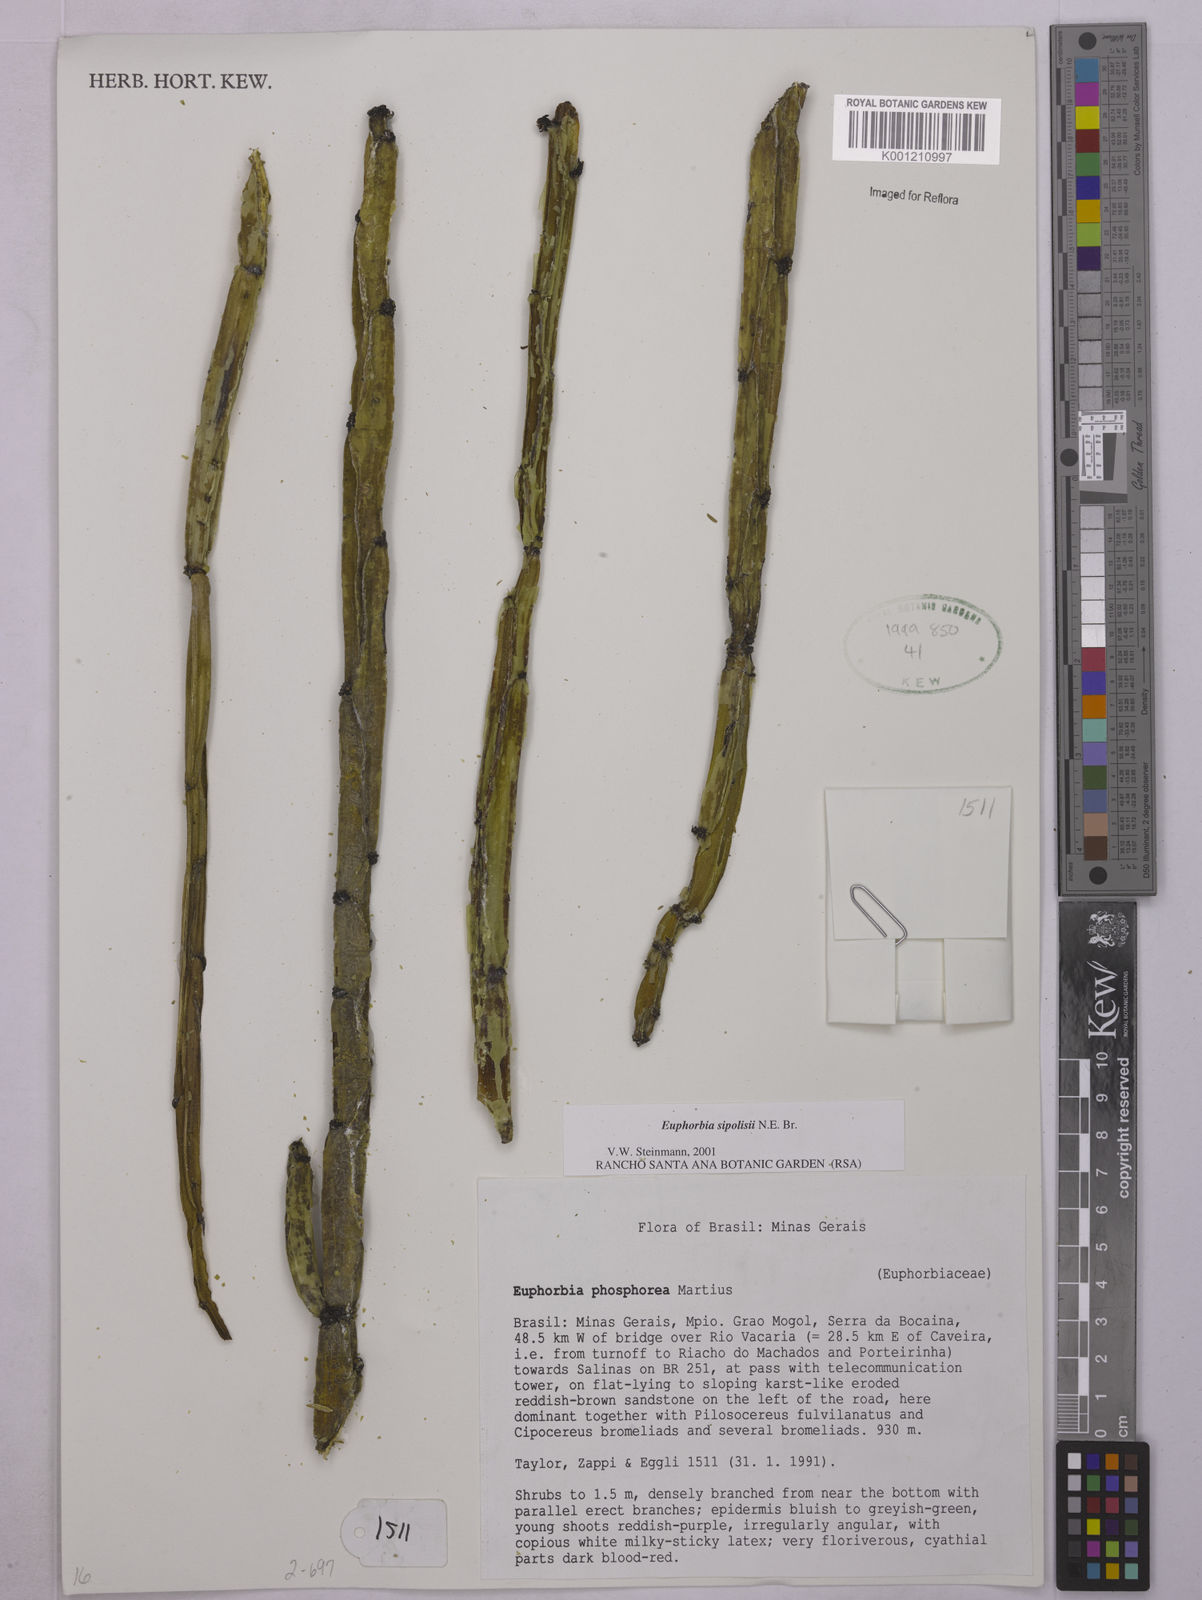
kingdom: Plantae
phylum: Tracheophyta
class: Magnoliopsida
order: Malpighiales
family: Euphorbiaceae
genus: Euphorbia
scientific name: Euphorbia sipolisii
